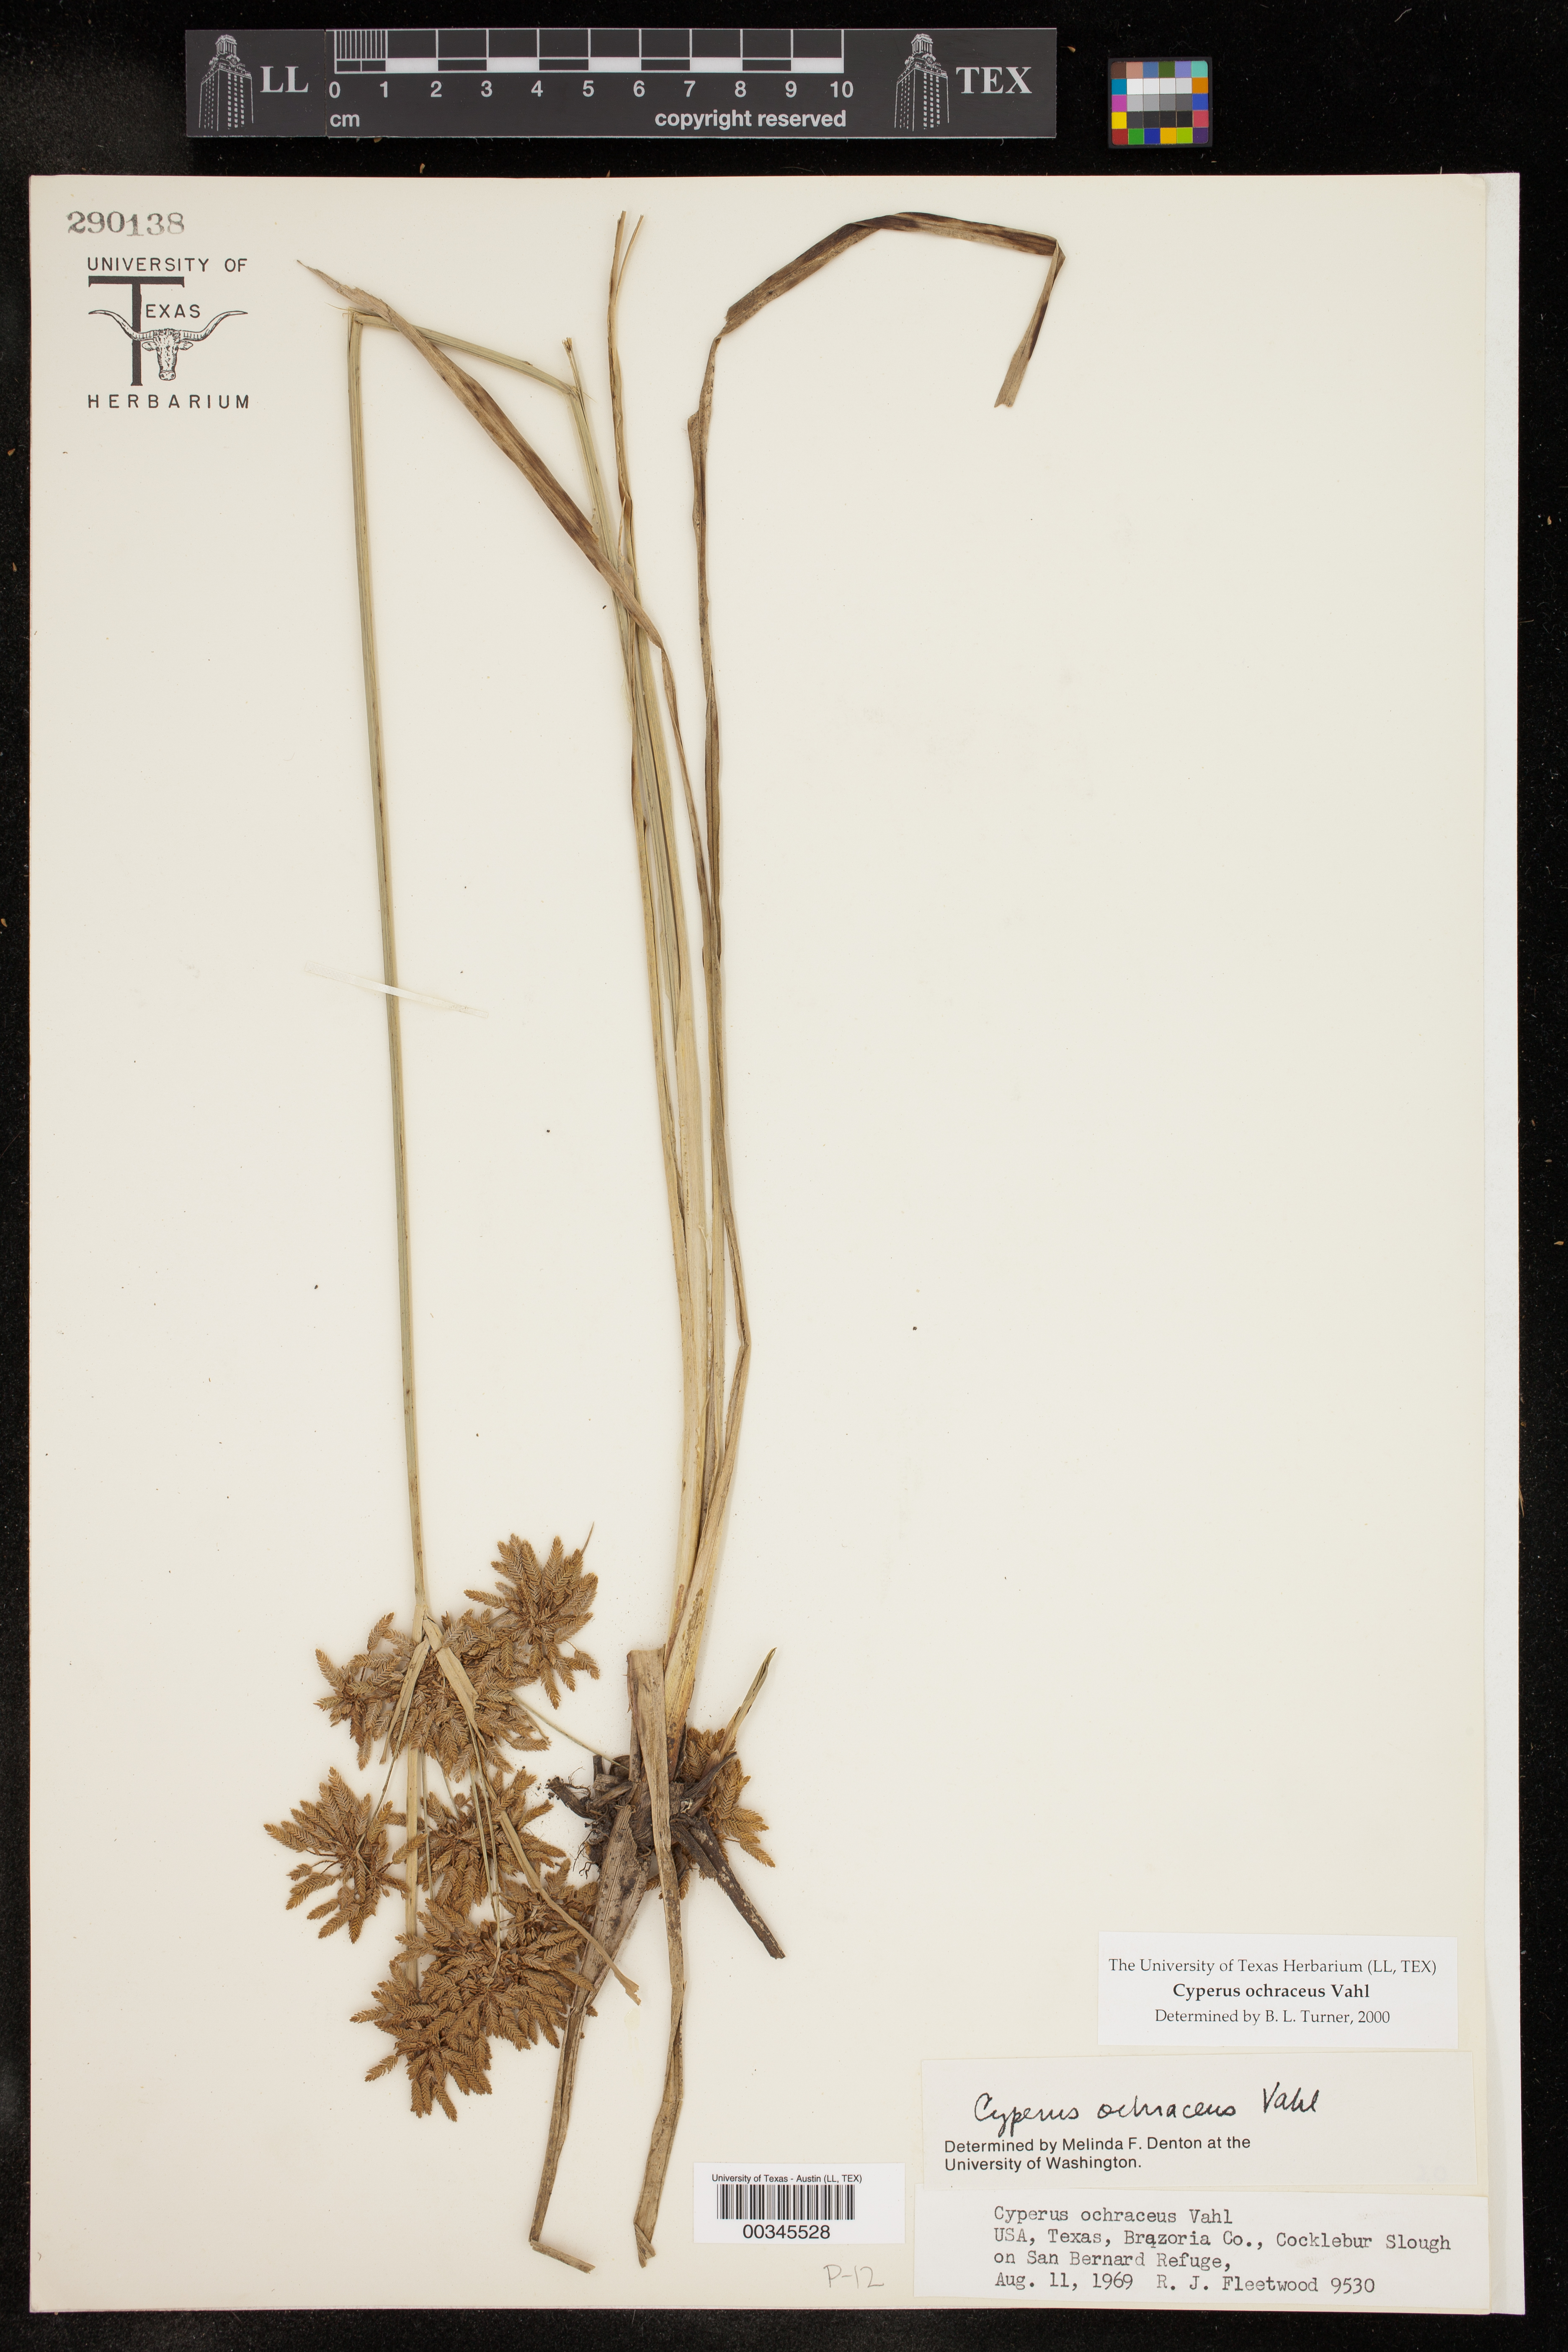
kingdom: Plantae
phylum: Tracheophyta
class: Liliopsida
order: Poales
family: Cyperaceae
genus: Cyperus
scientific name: Cyperus ochraceus
